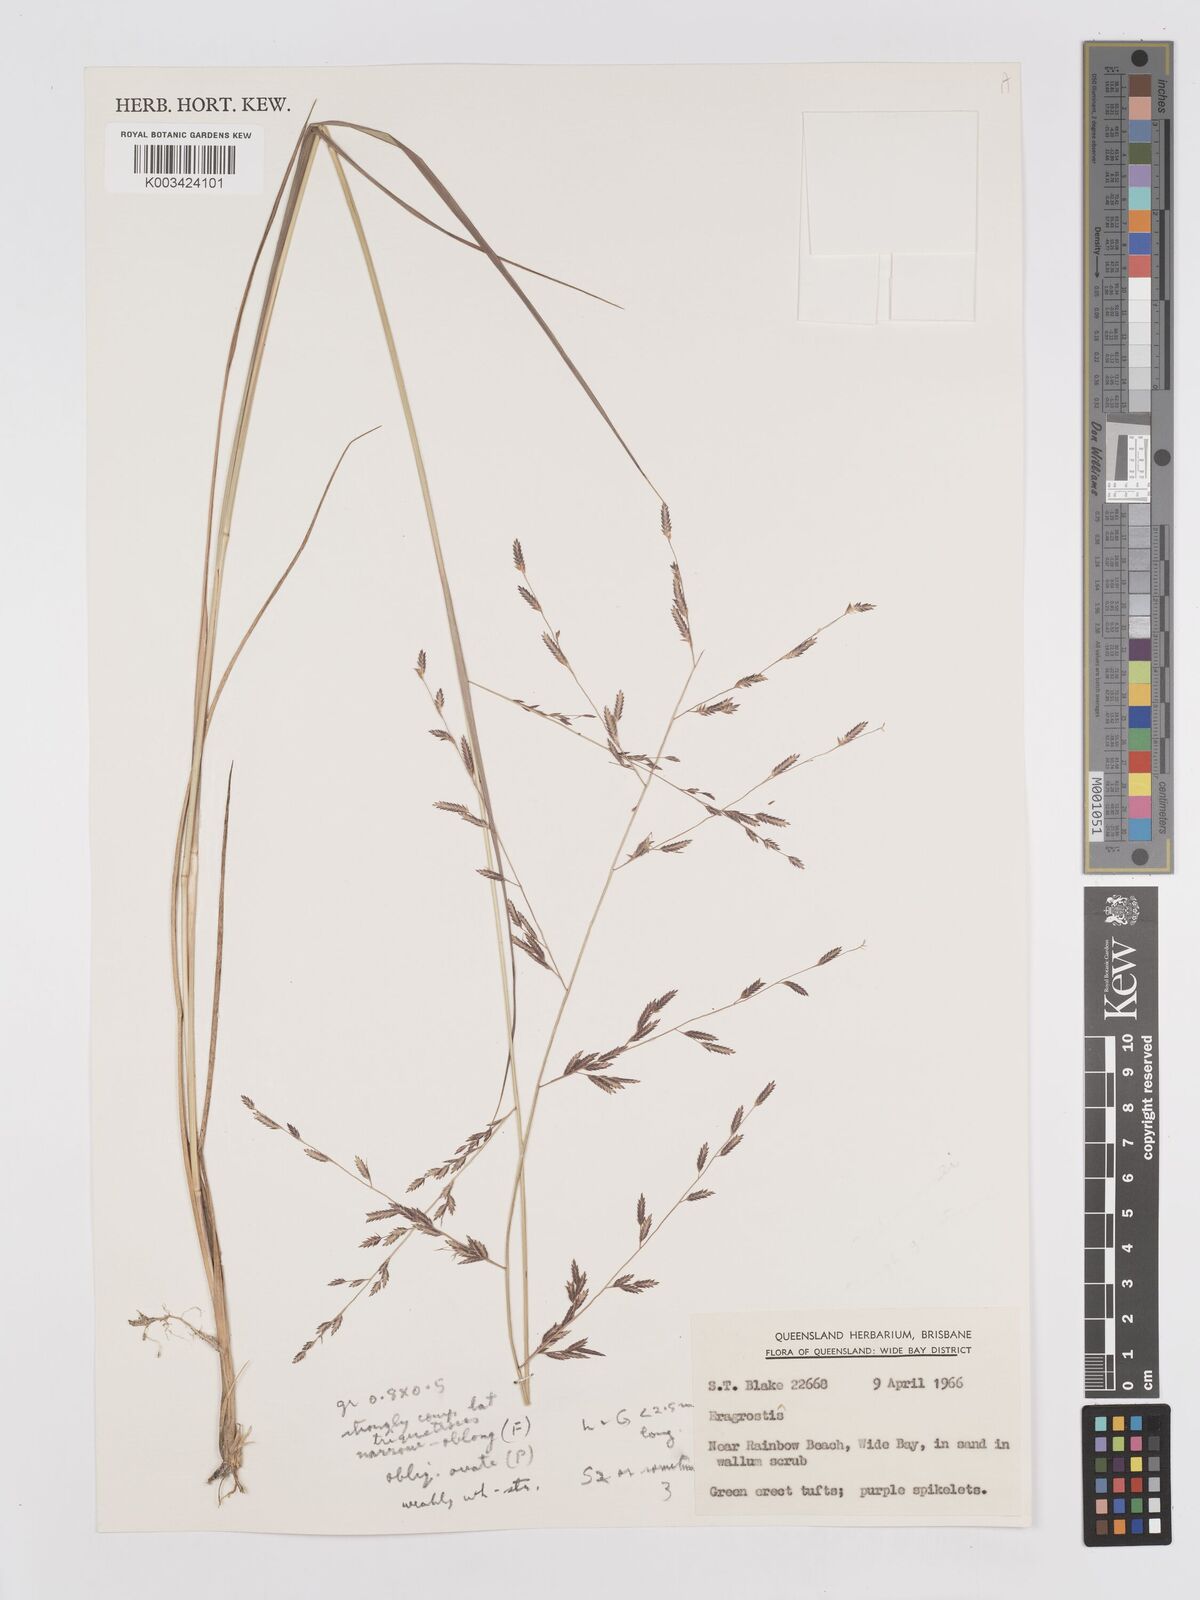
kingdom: Plantae
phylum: Tracheophyta
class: Liliopsida
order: Poales
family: Poaceae
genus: Eragrostis
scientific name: Eragrostis brownii
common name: Lovegrass
